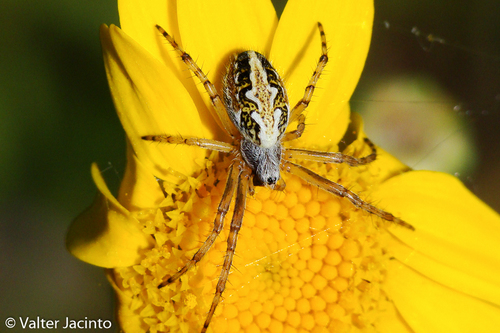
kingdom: Animalia
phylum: Arthropoda
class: Arachnida
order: Araneae
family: Araneidae
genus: Aculepeira
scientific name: Aculepeira armida
